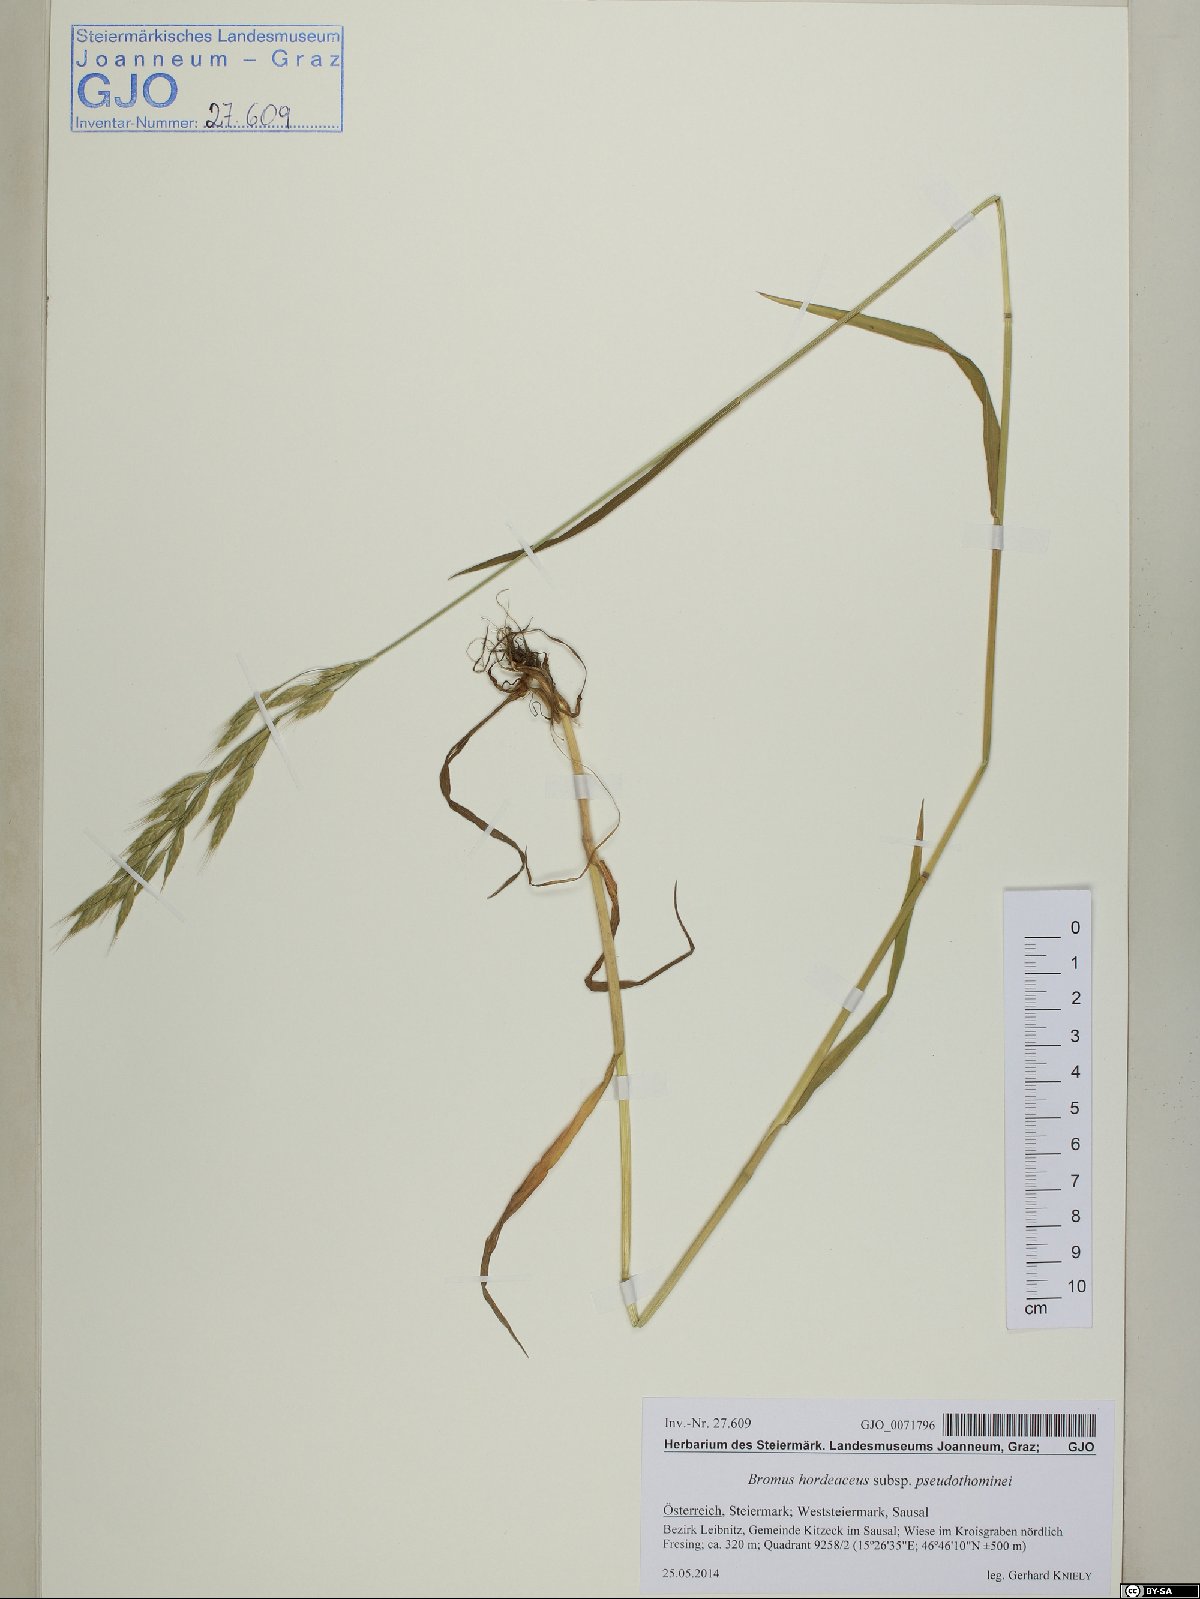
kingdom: Plantae
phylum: Tracheophyta
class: Liliopsida
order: Poales
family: Poaceae
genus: Bromus
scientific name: Bromus ferronii
